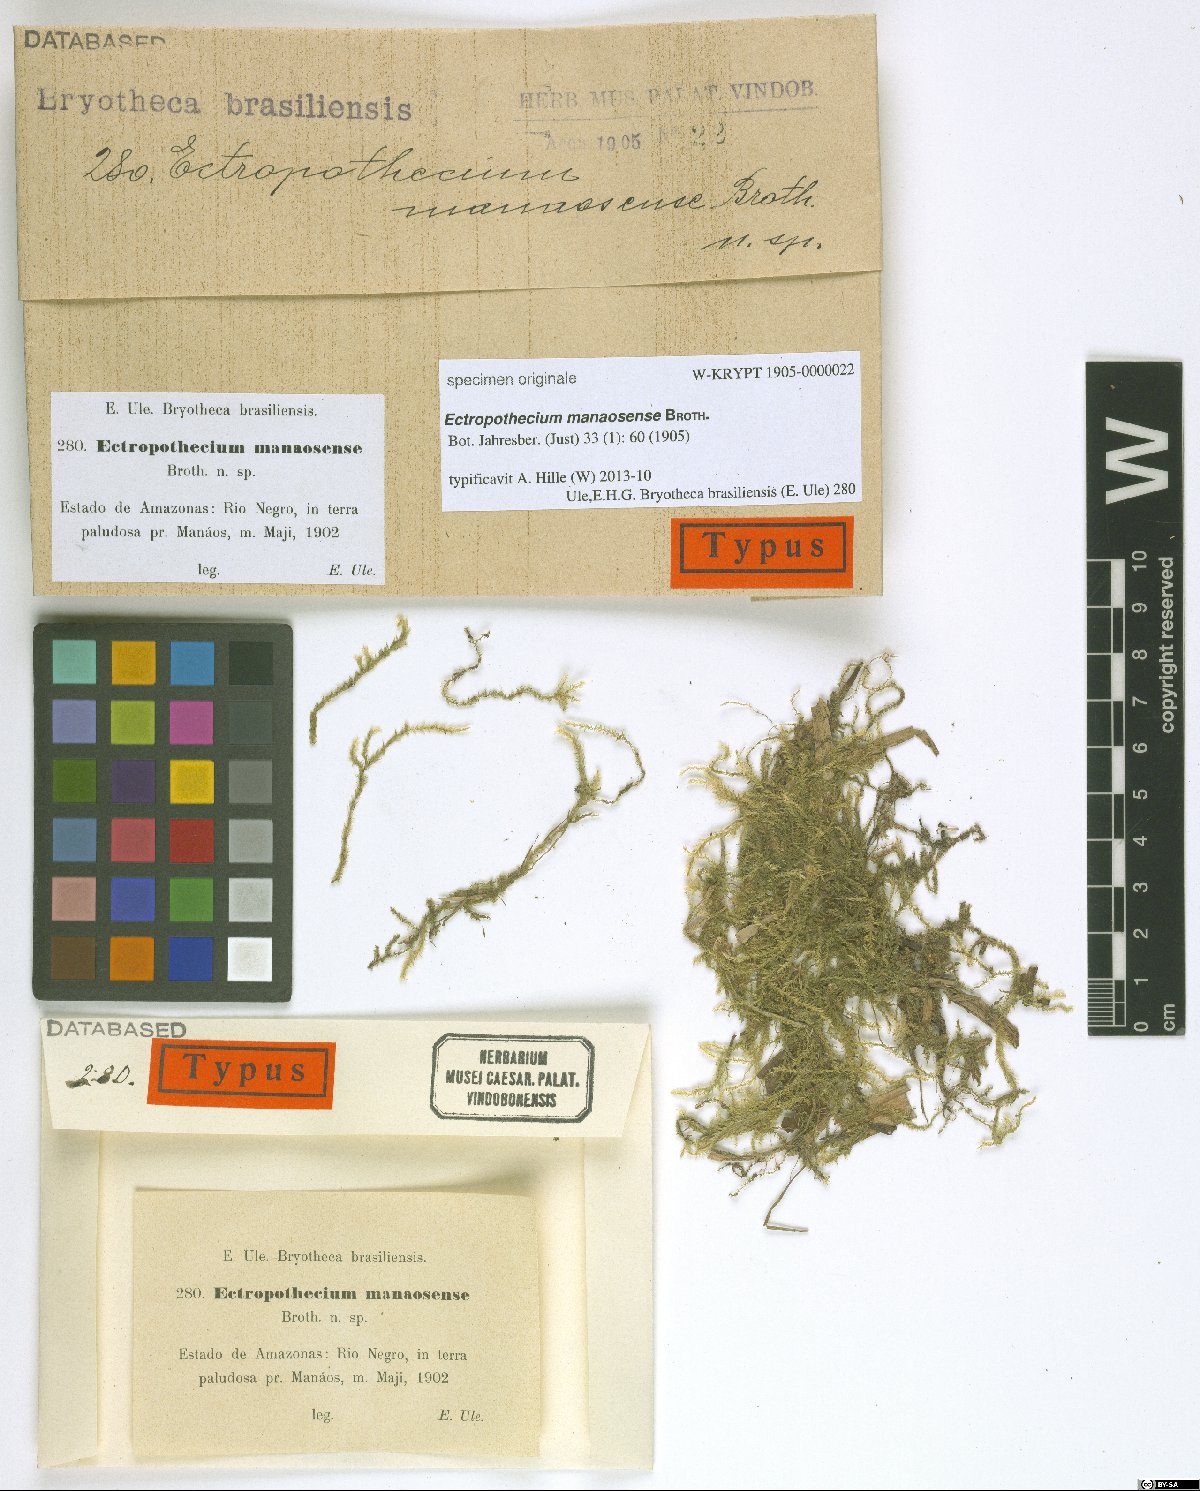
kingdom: Plantae
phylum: Bryophyta
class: Bryopsida
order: Hypnales
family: Hypnaceae
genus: Ectropothecium
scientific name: Ectropothecium
